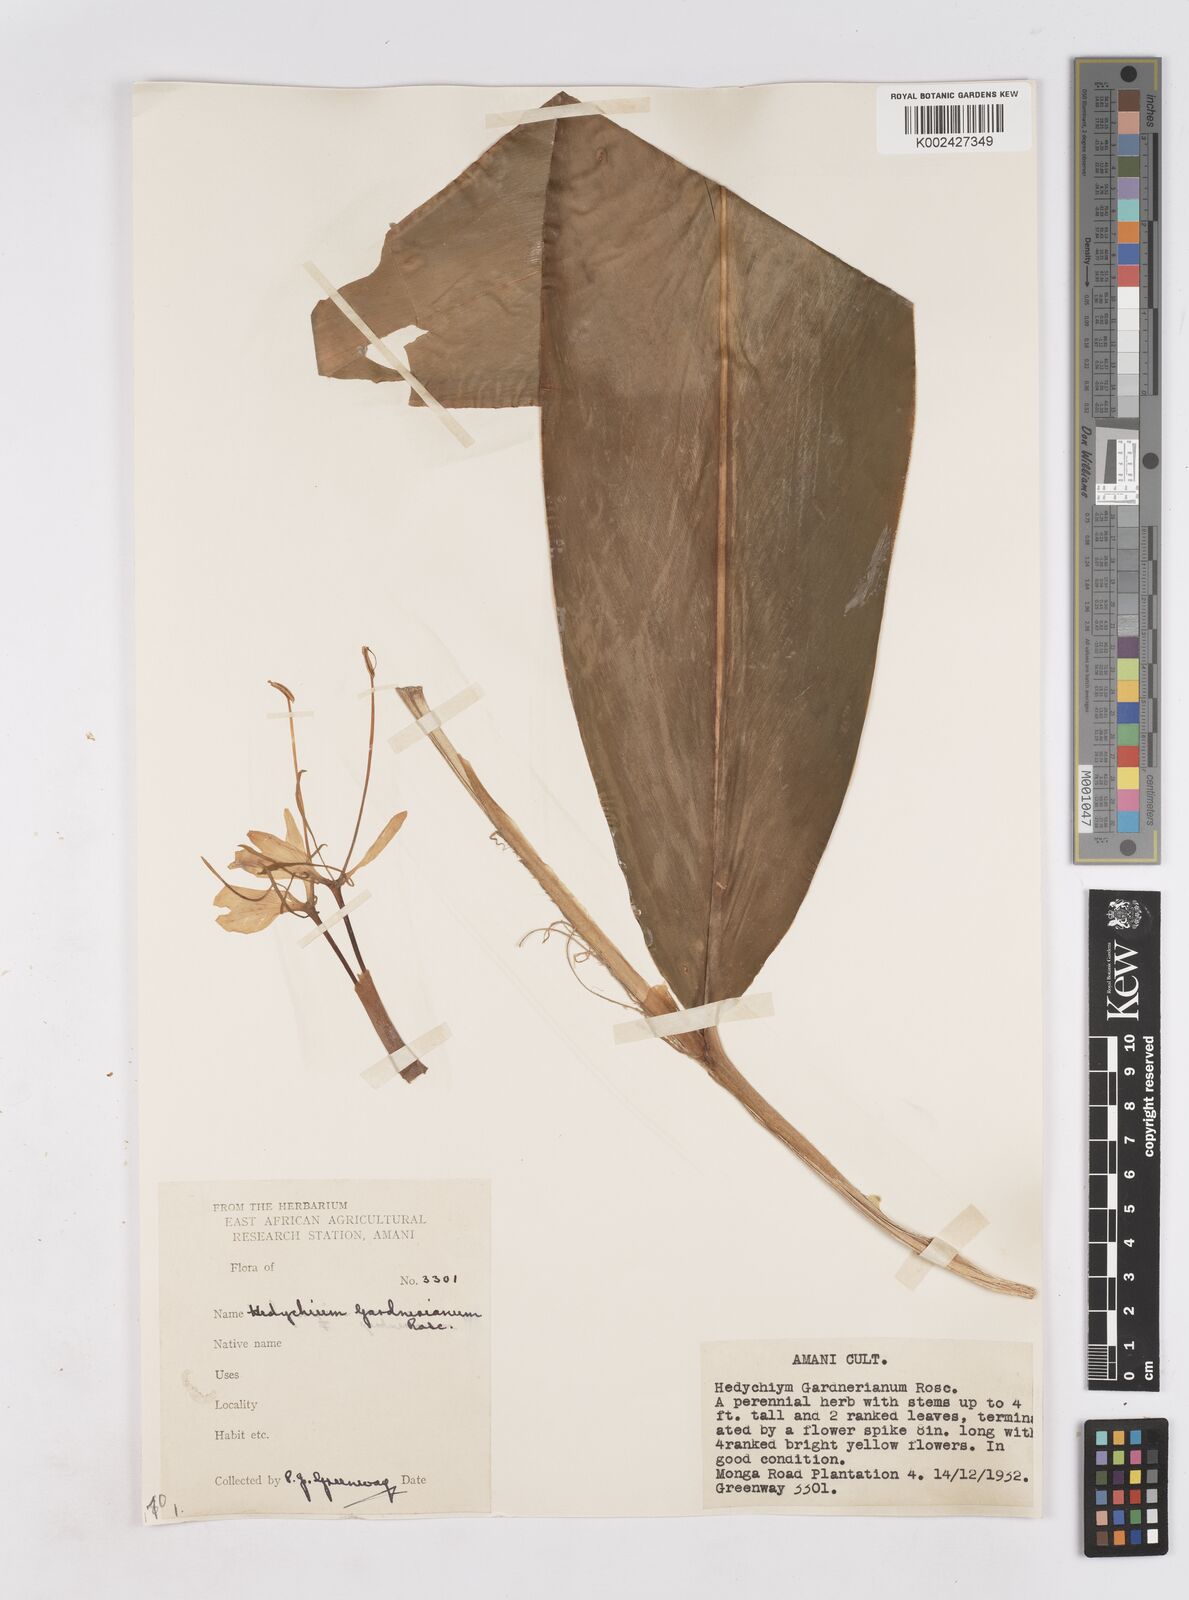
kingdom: Plantae
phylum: Tracheophyta
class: Liliopsida
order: Zingiberales
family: Zingiberaceae
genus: Hedychium
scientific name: Hedychium gardnerianum
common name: Himalayan ginger
